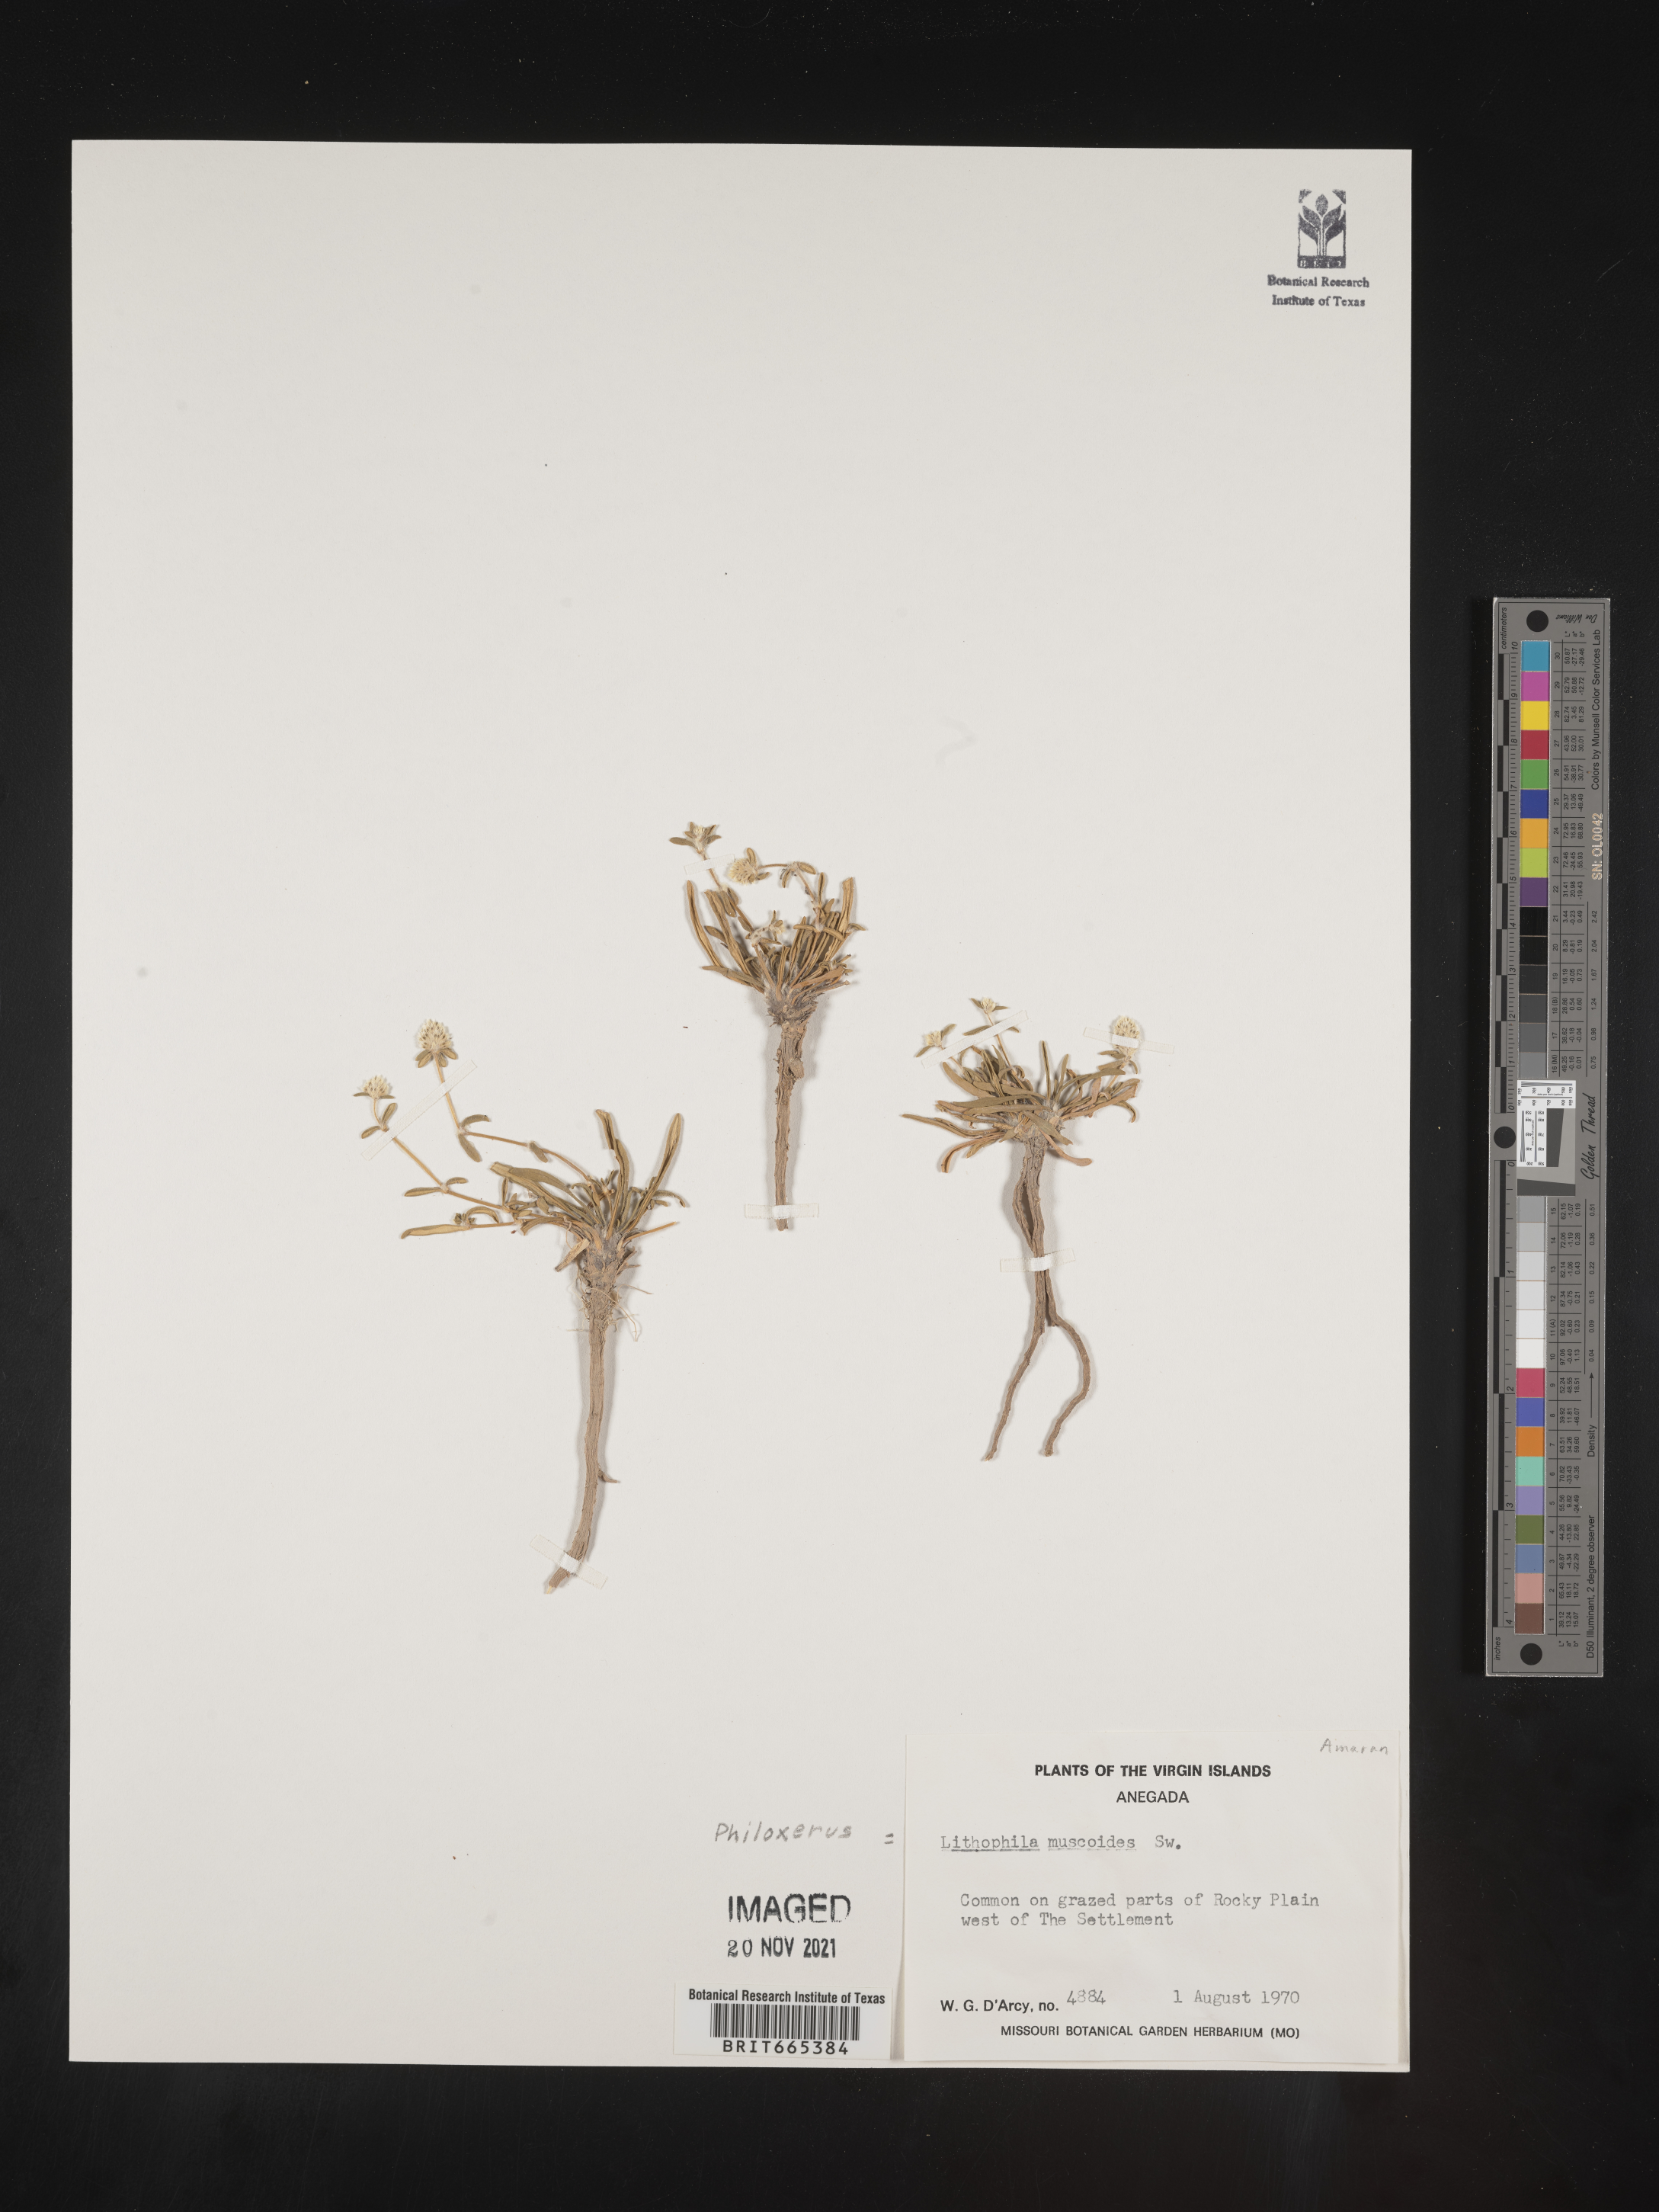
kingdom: Plantae
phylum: Tracheophyta
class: Magnoliopsida
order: Caryophyllales
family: Amaranthaceae
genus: Gomphrena
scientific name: Gomphrena
